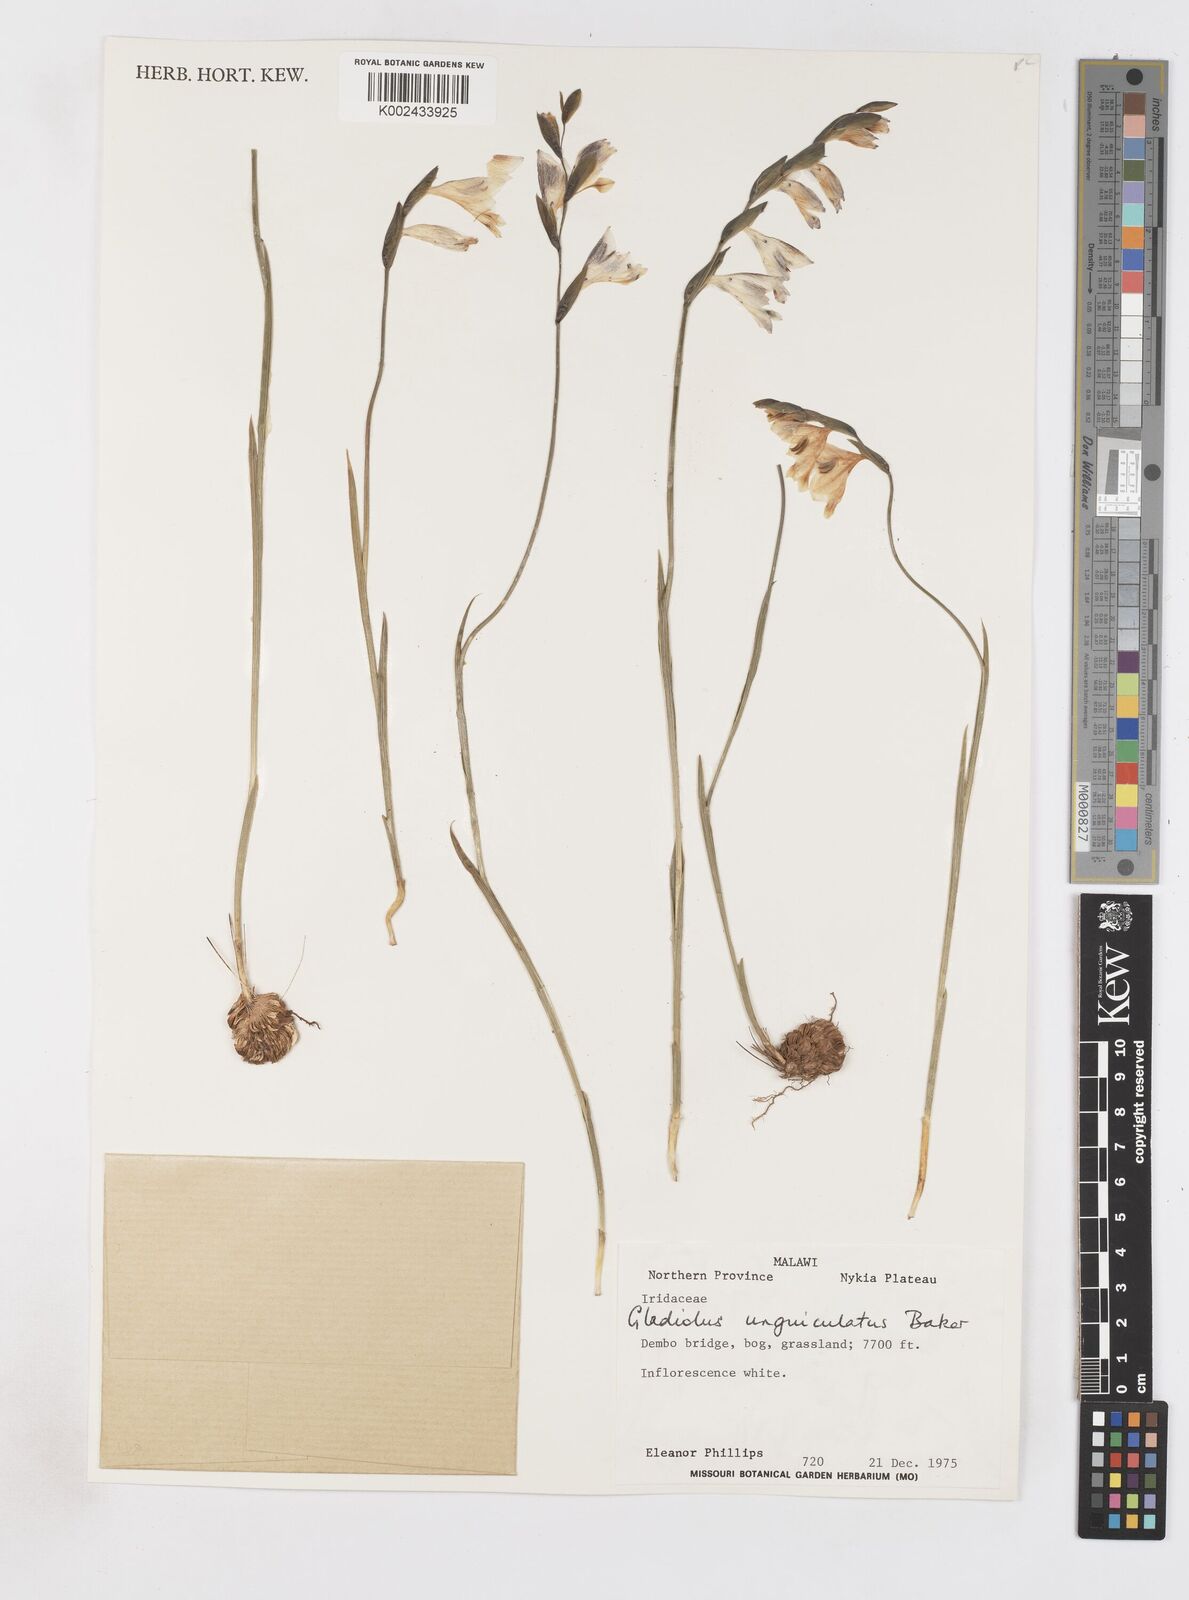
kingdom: Plantae
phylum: Tracheophyta
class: Liliopsida
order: Asparagales
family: Iridaceae
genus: Gladiolus
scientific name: Gladiolus atropurpureus
